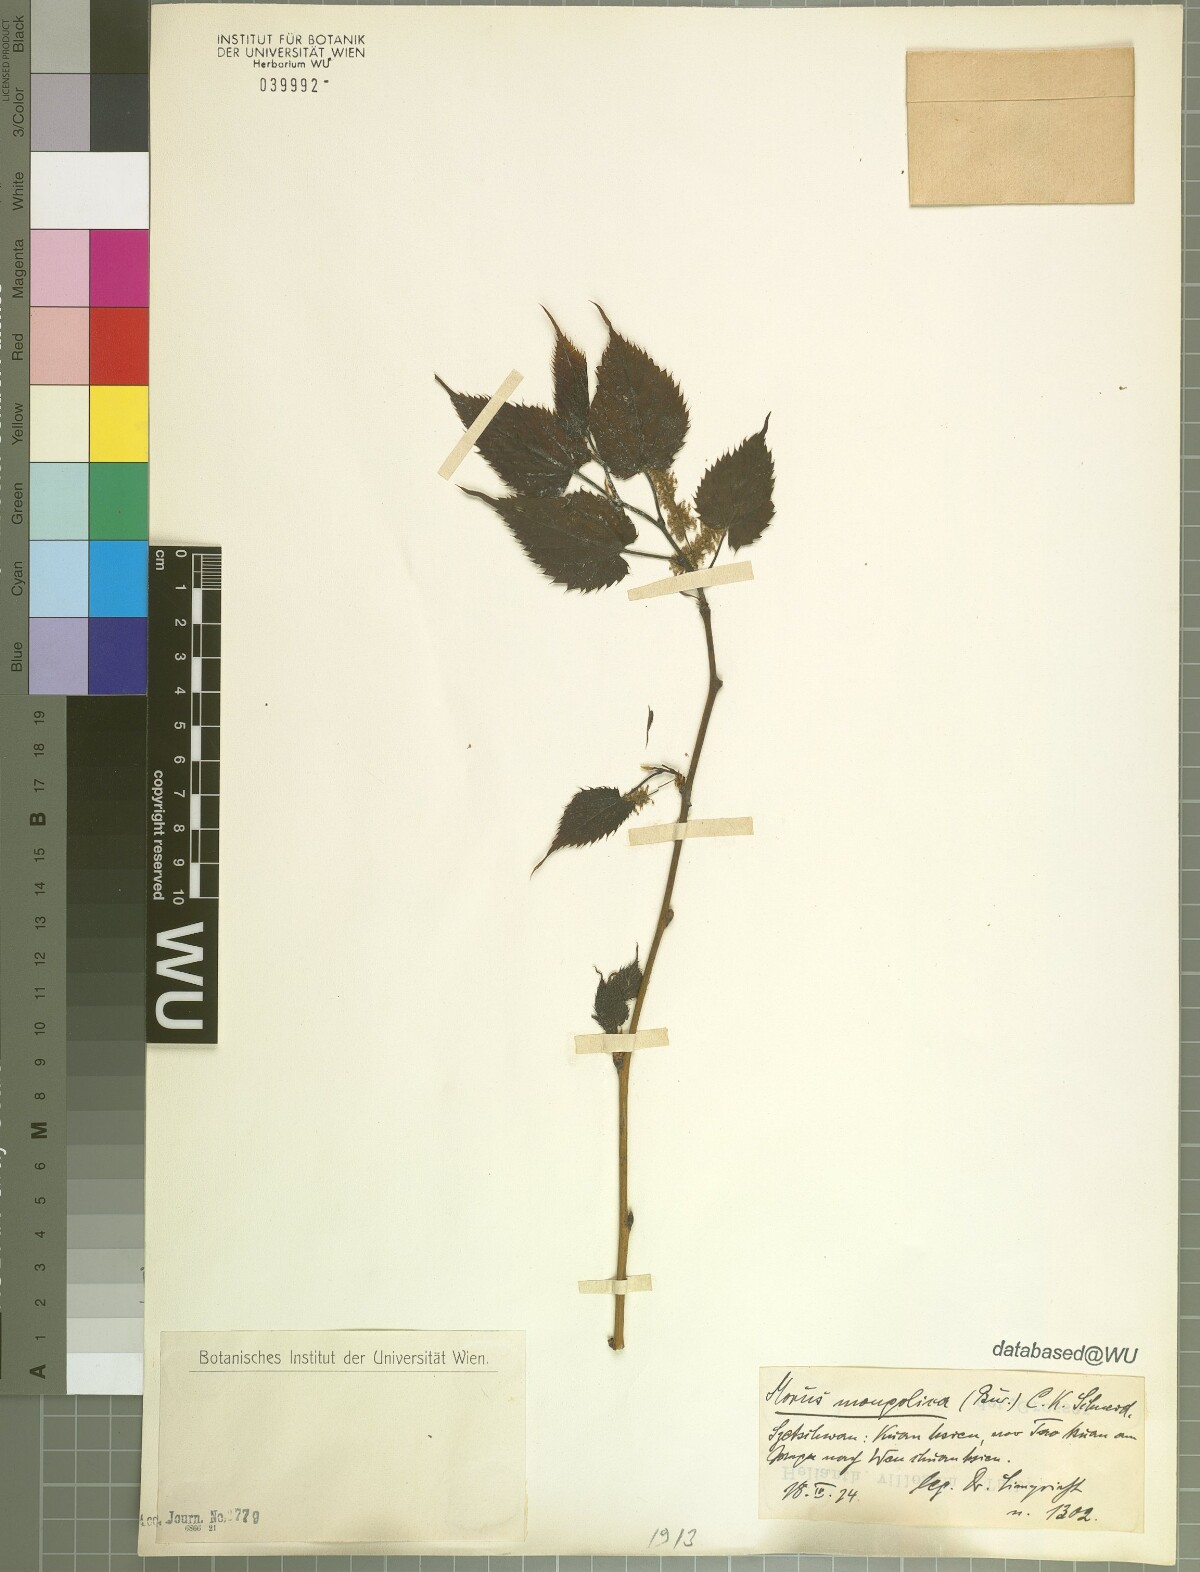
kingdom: Plantae
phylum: Tracheophyta
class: Magnoliopsida
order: Rosales
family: Moraceae
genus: Morus
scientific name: Morus mongolica
